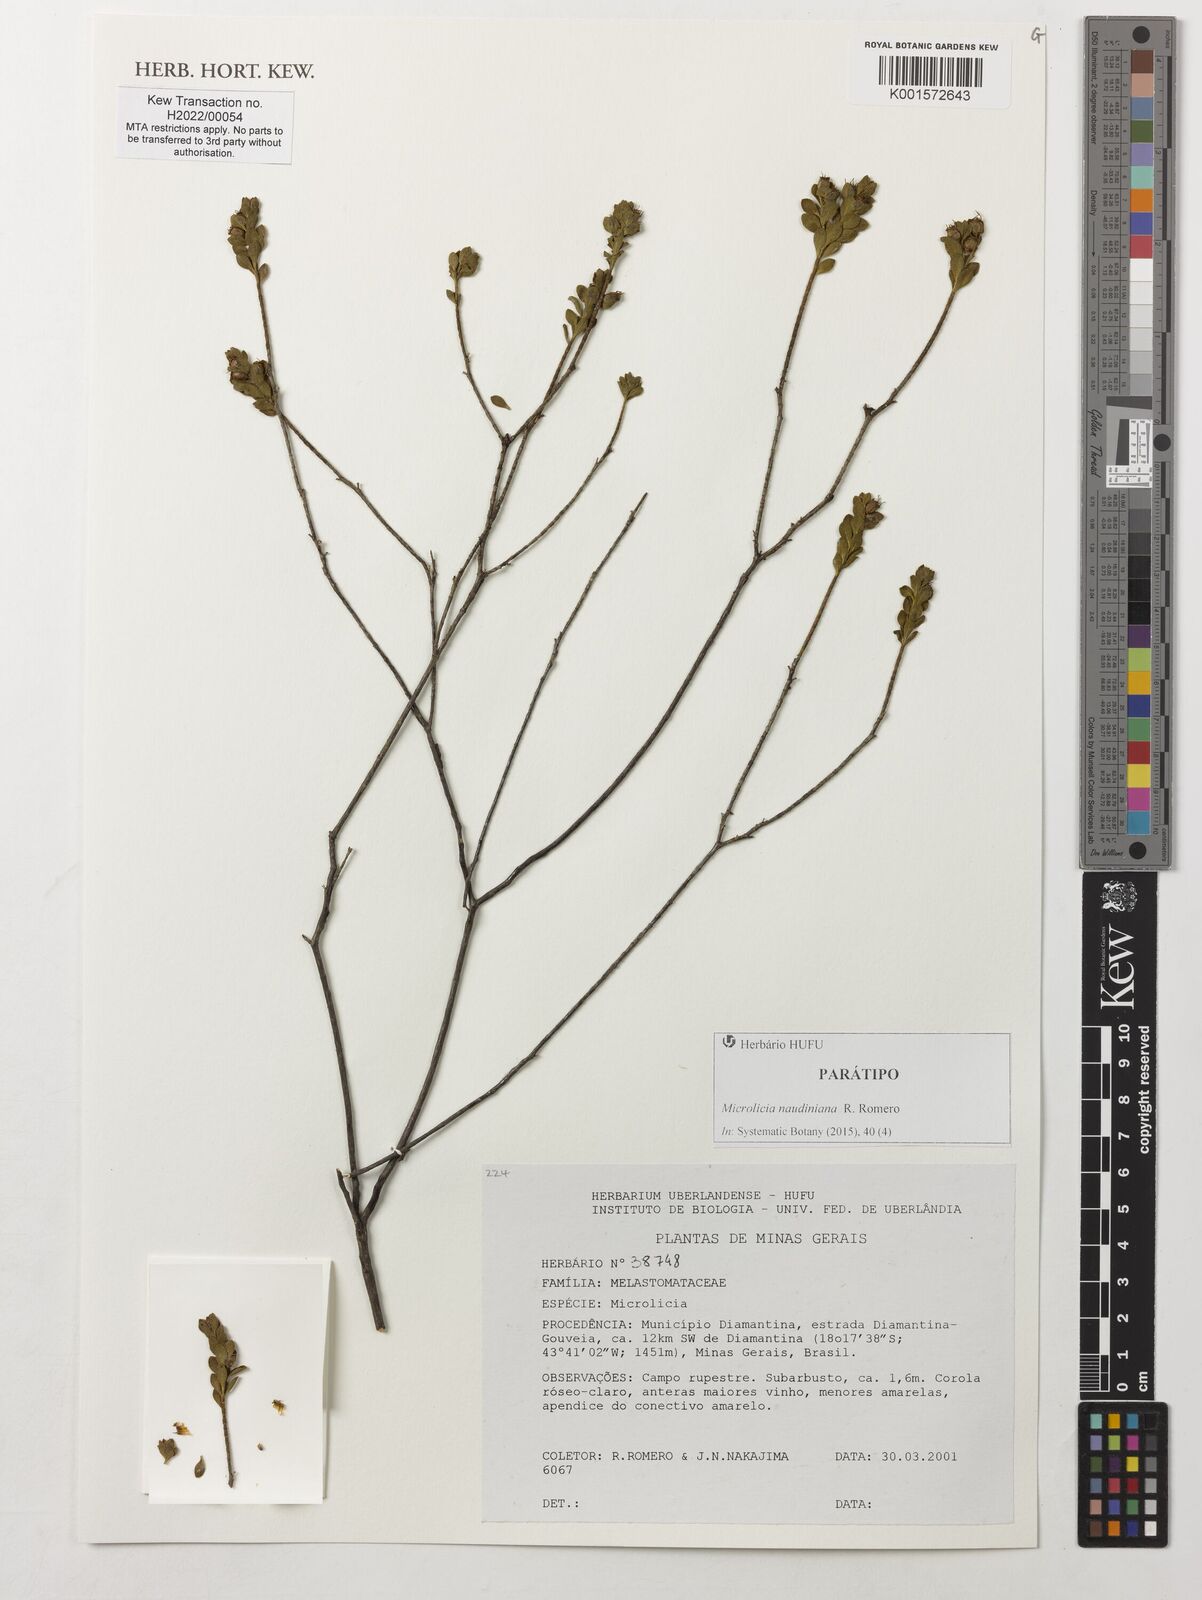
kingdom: Plantae
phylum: Tracheophyta
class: Magnoliopsida
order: Myrtales
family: Melastomataceae
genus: Microlicia
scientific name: Microlicia naudiniana
